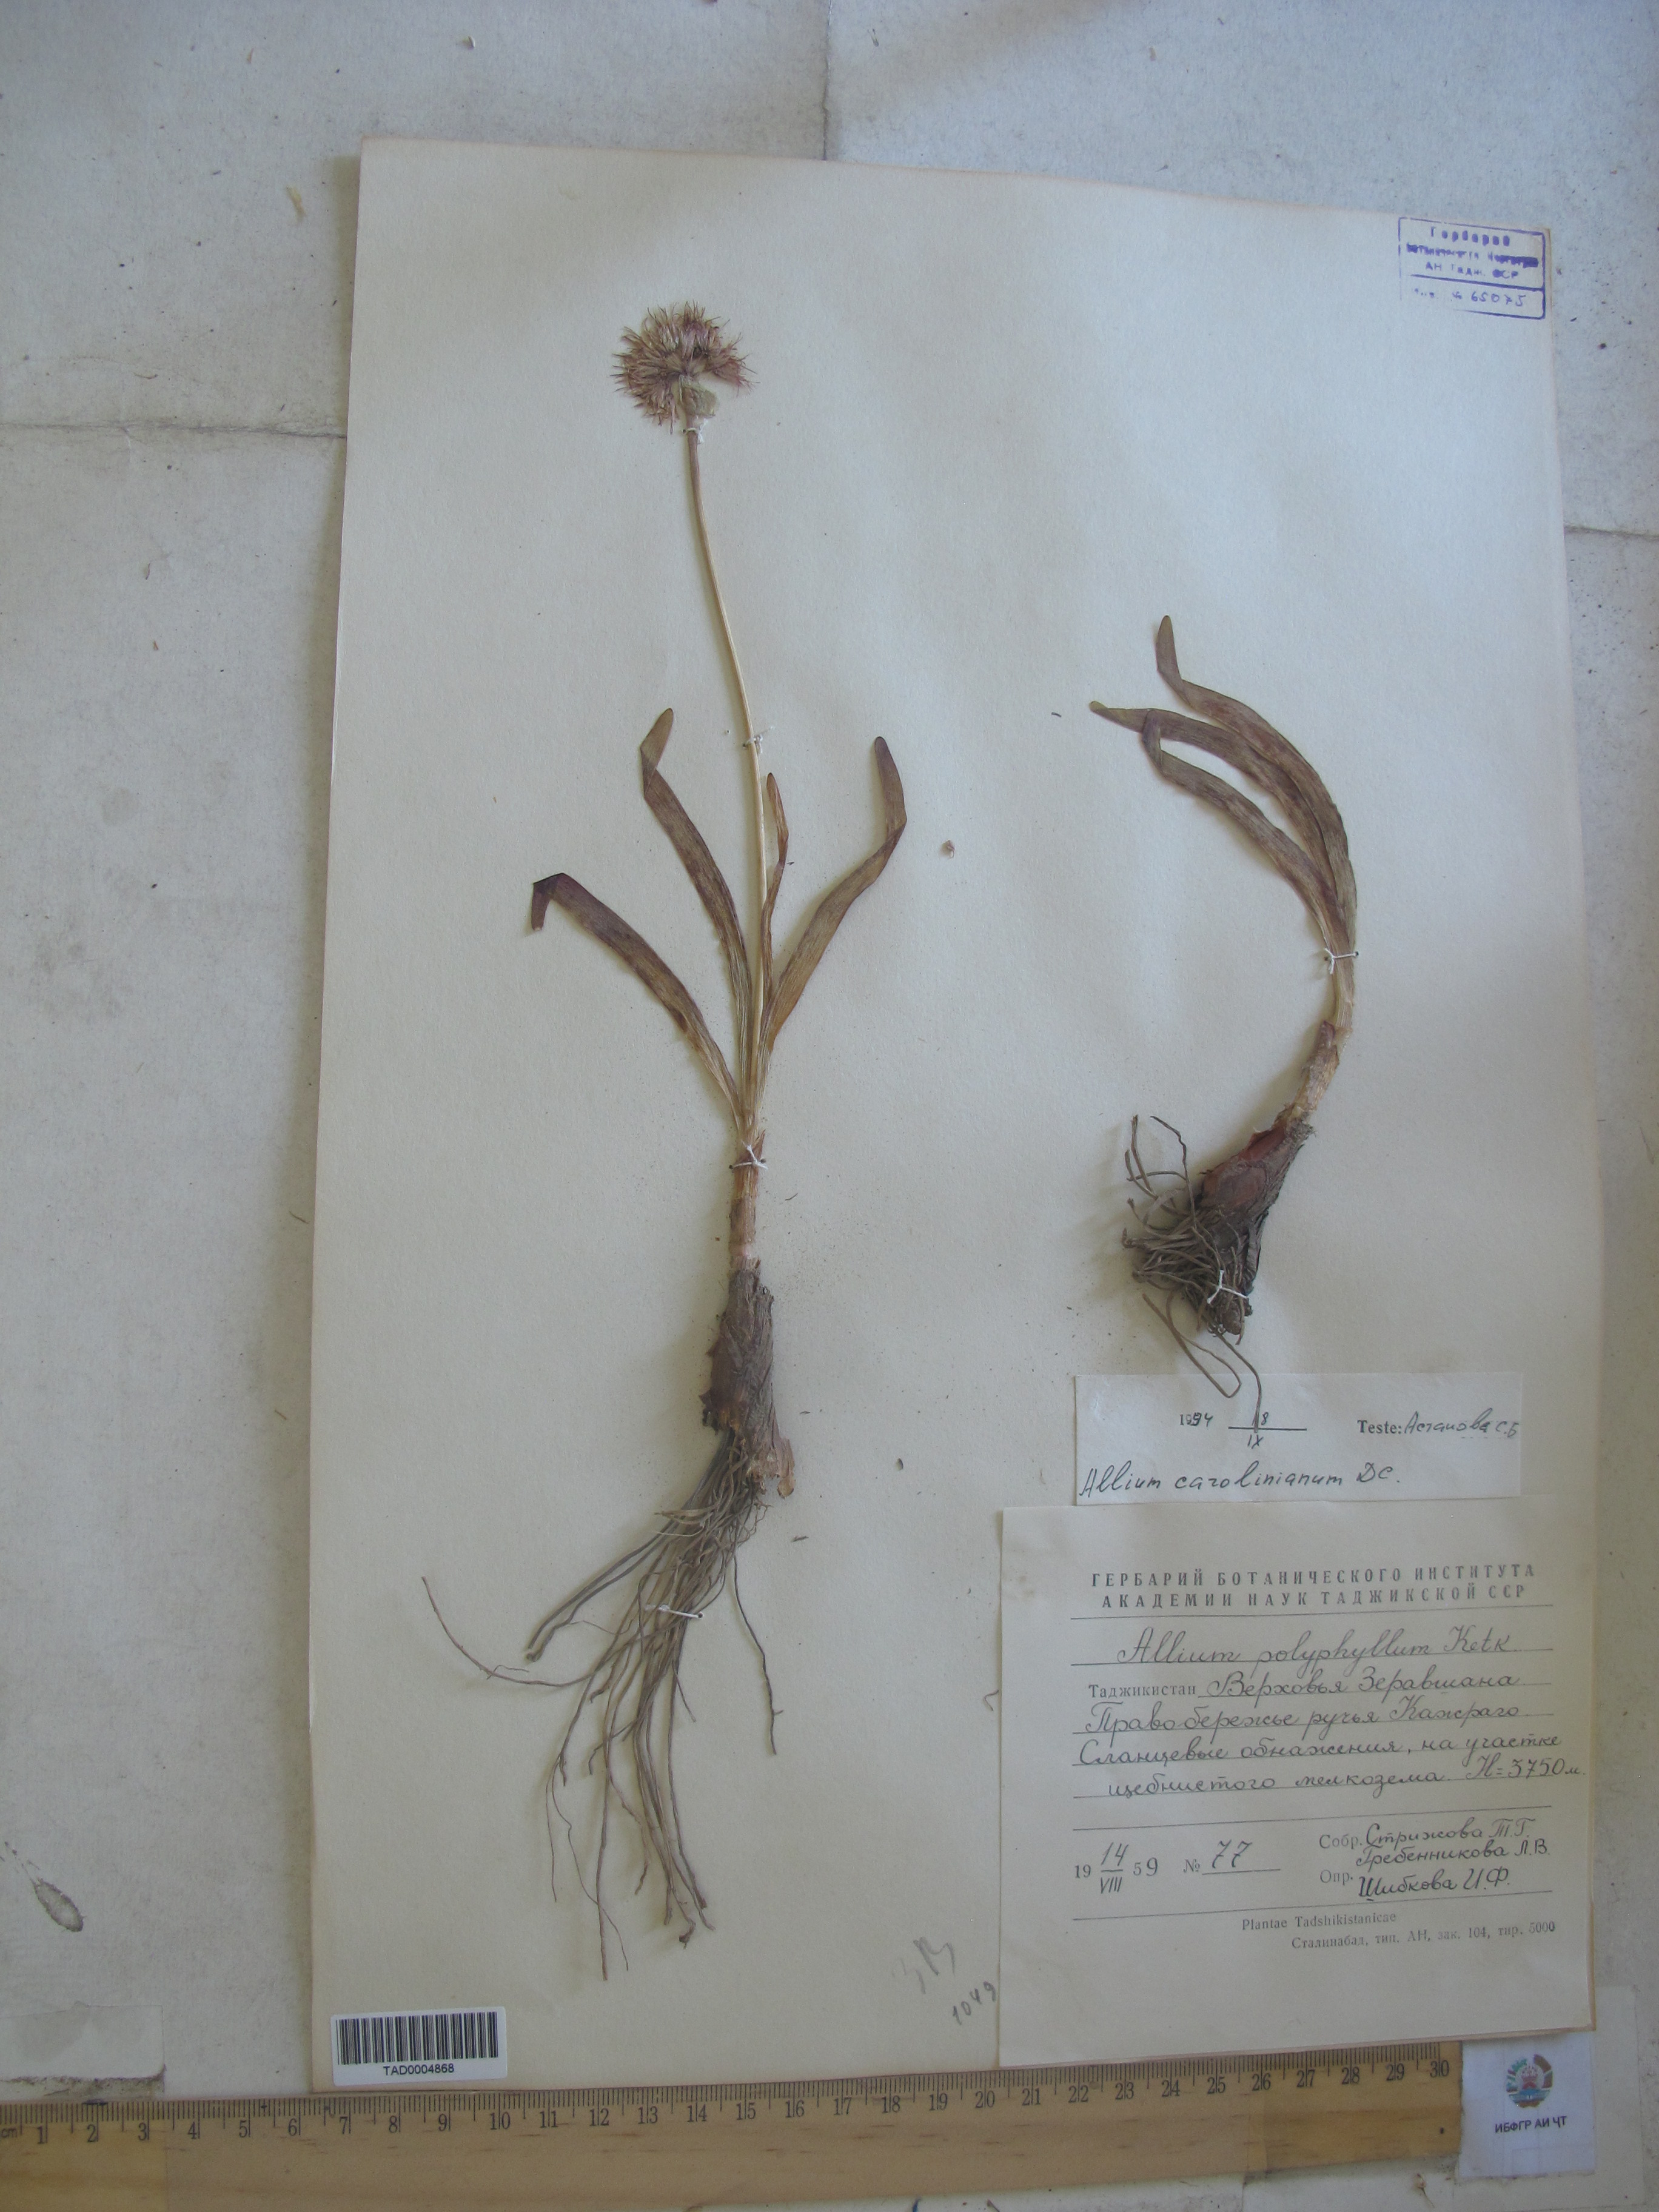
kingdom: Plantae
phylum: Tracheophyta
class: Liliopsida
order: Asparagales
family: Amaryllidaceae
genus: Allium
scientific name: Allium carolinianum
